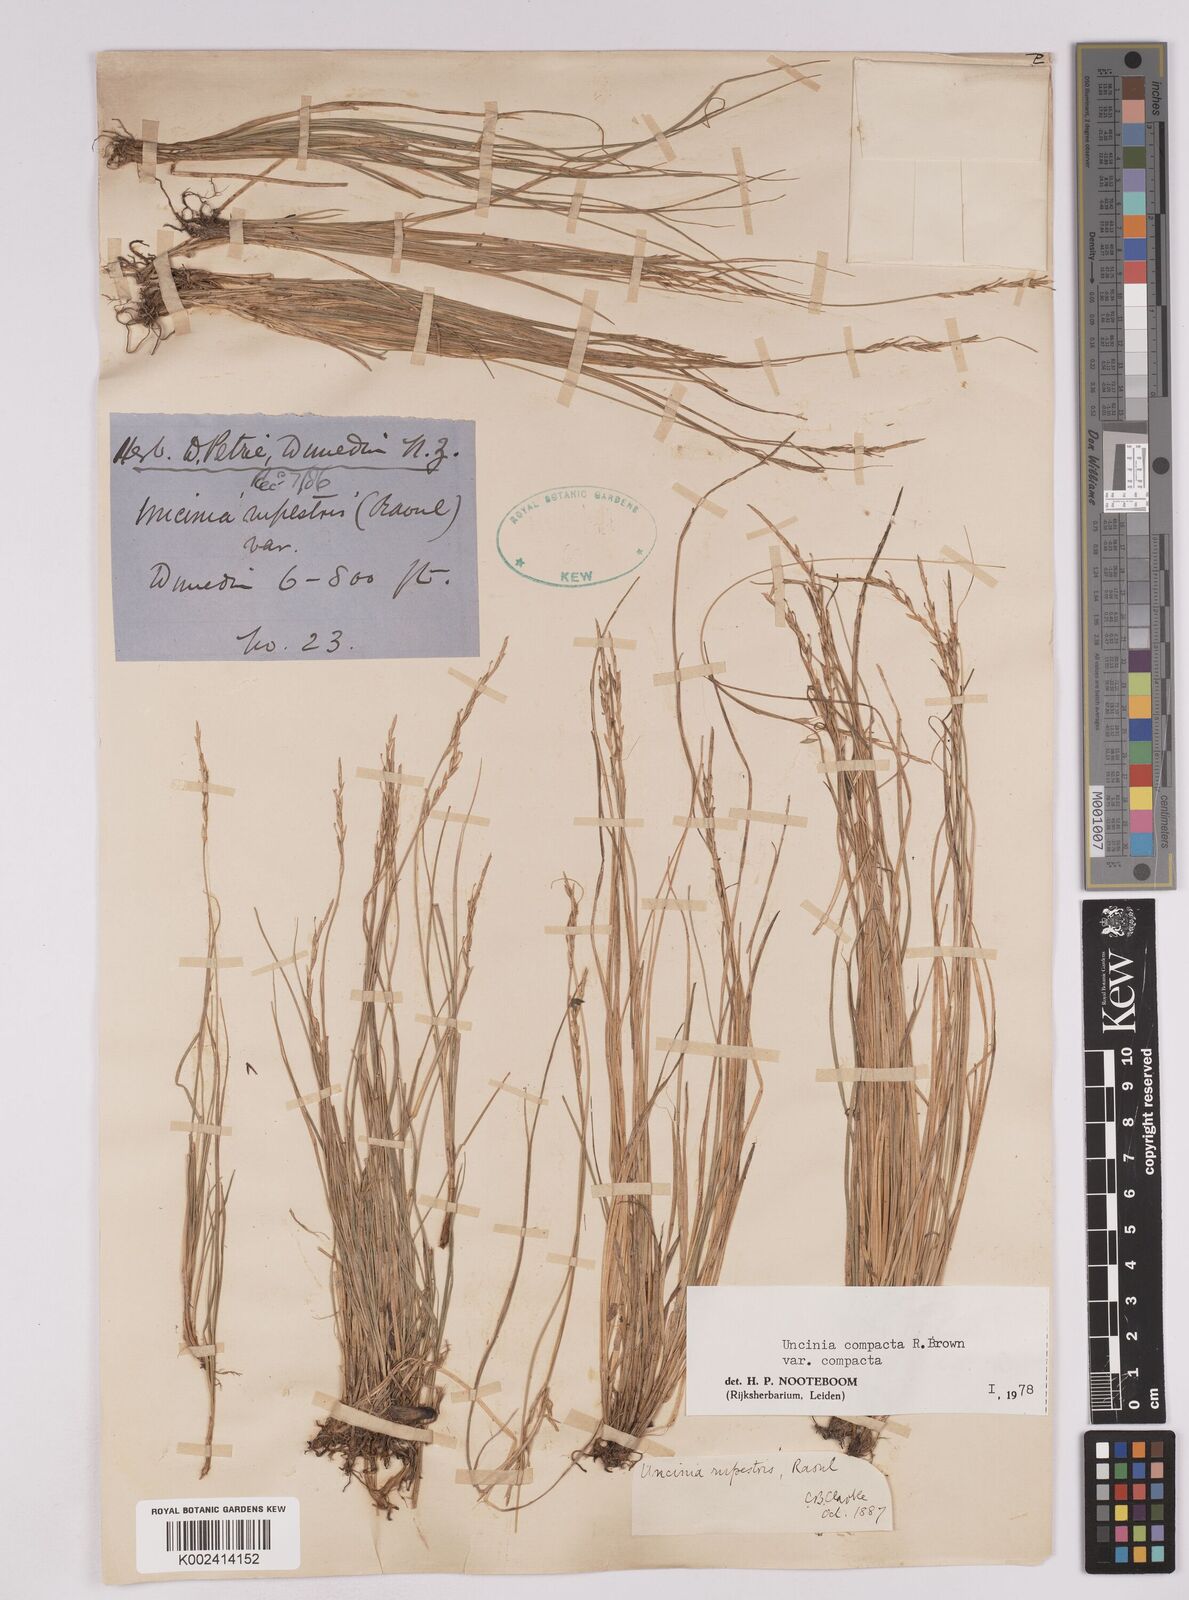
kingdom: Plantae
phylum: Tracheophyta
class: Liliopsida
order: Poales
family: Cyperaceae
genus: Carex
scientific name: Carex austrocompacta
